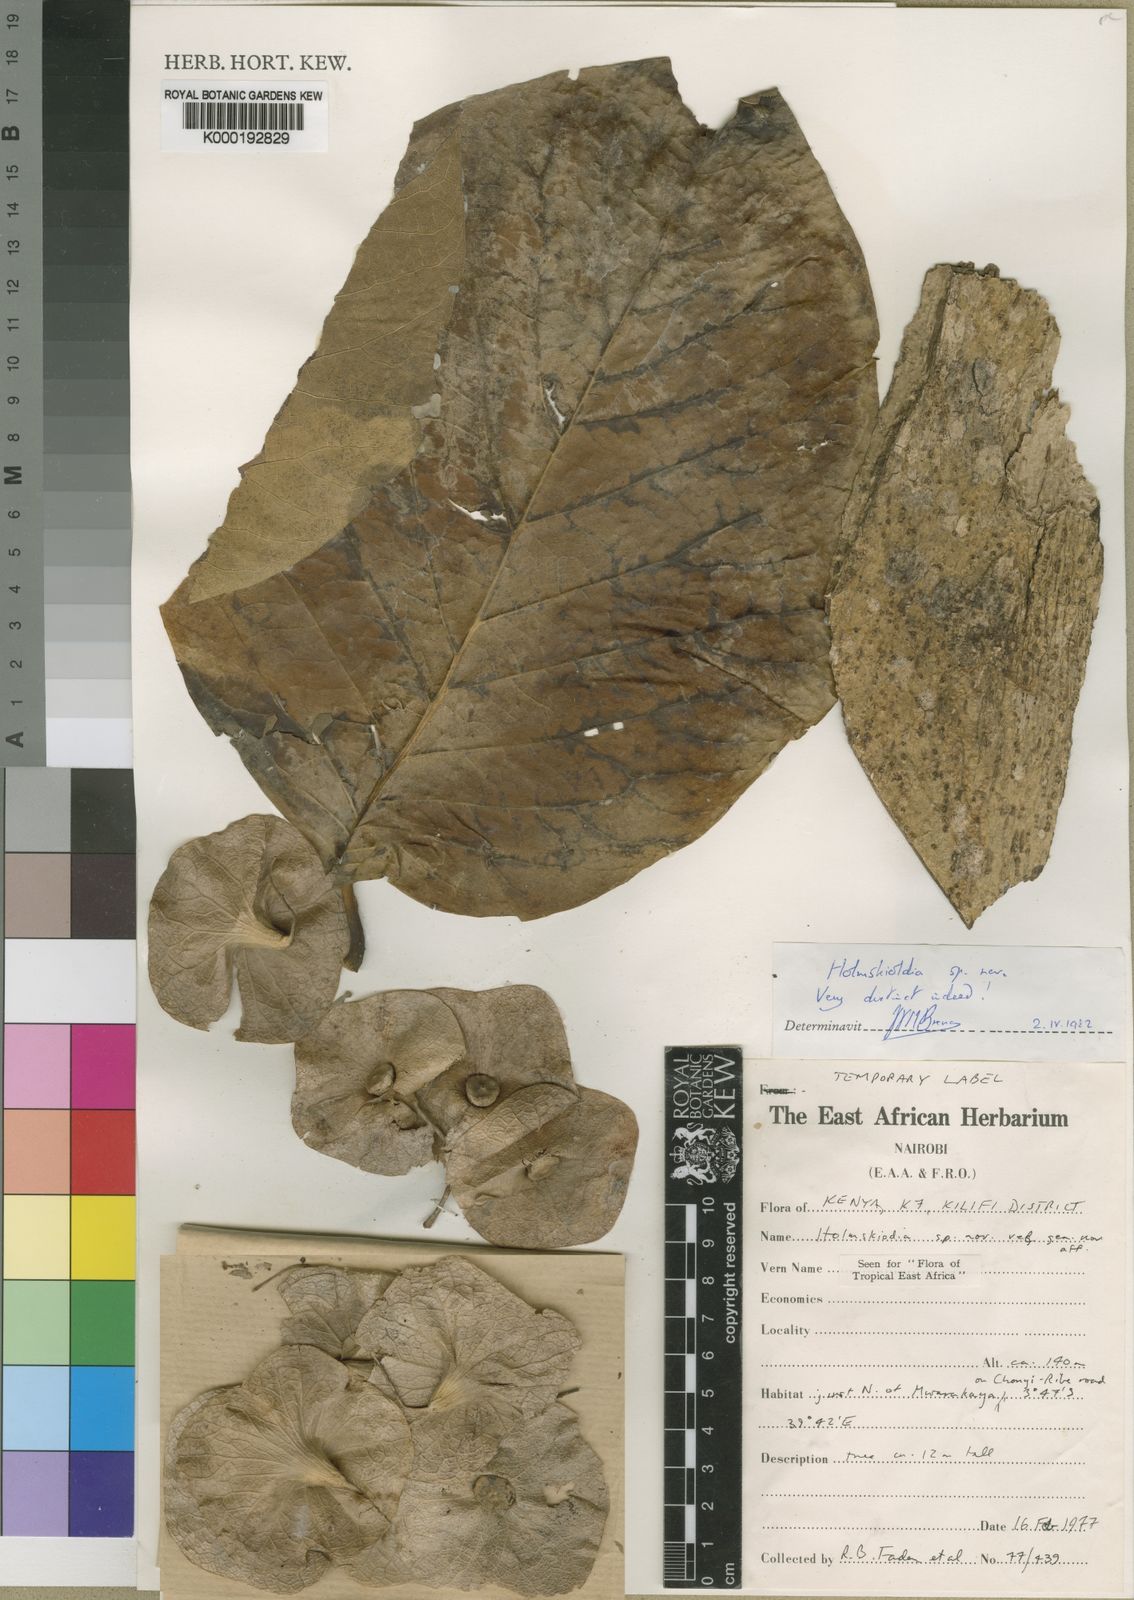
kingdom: Plantae
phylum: Tracheophyta
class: Magnoliopsida
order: Lamiales
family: Lamiaceae
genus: Karomia
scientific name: Karomia gigas
